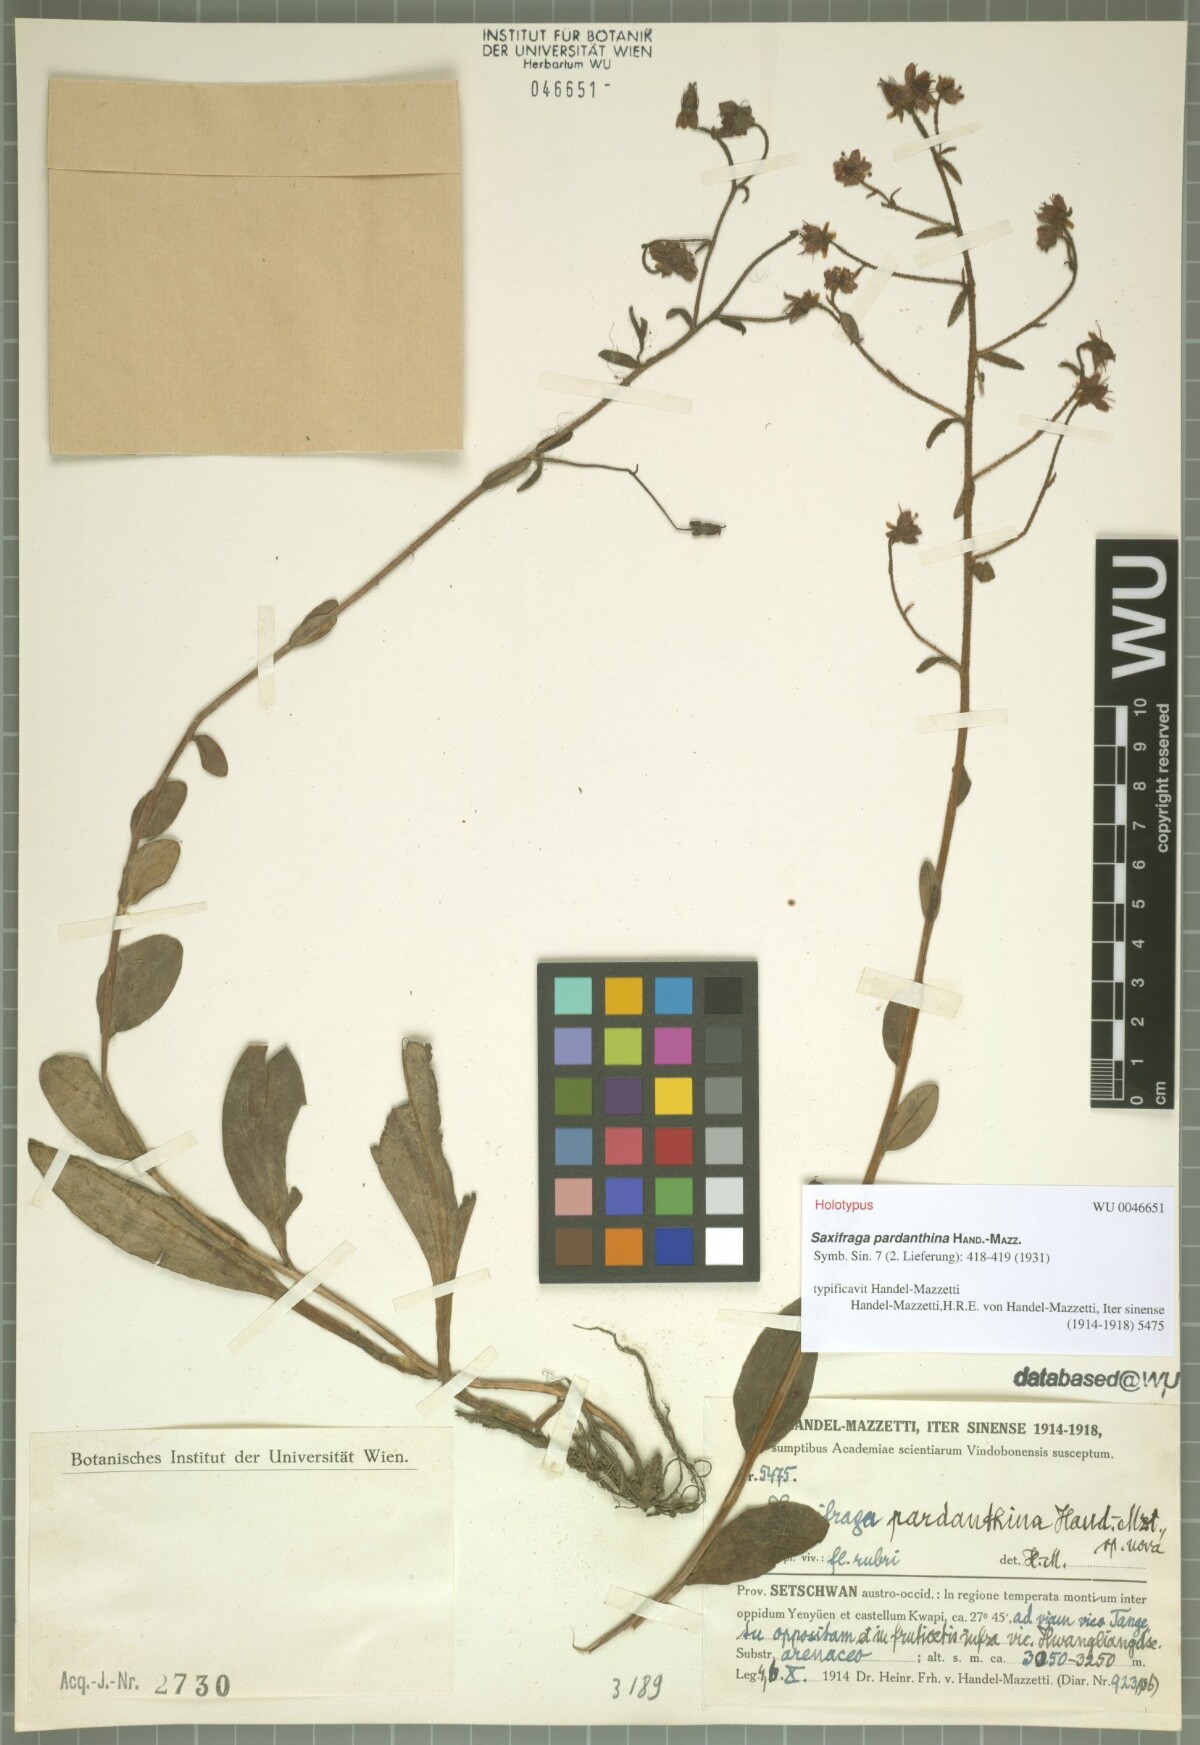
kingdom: Plantae
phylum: Tracheophyta
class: Magnoliopsida
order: Saxifragales
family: Saxifragaceae
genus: Saxifraga
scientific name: Saxifraga pardanthina
